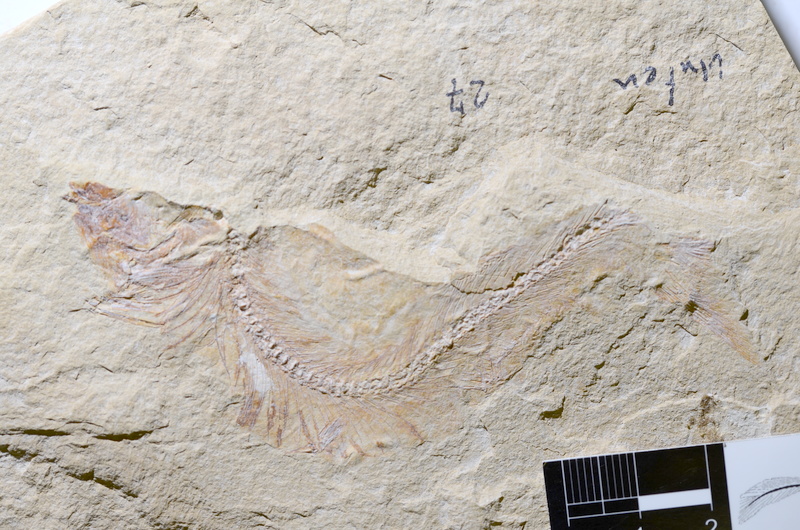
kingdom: Animalia
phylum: Chordata
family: Allothrissopidae
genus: Allothrissops
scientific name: Allothrissops
